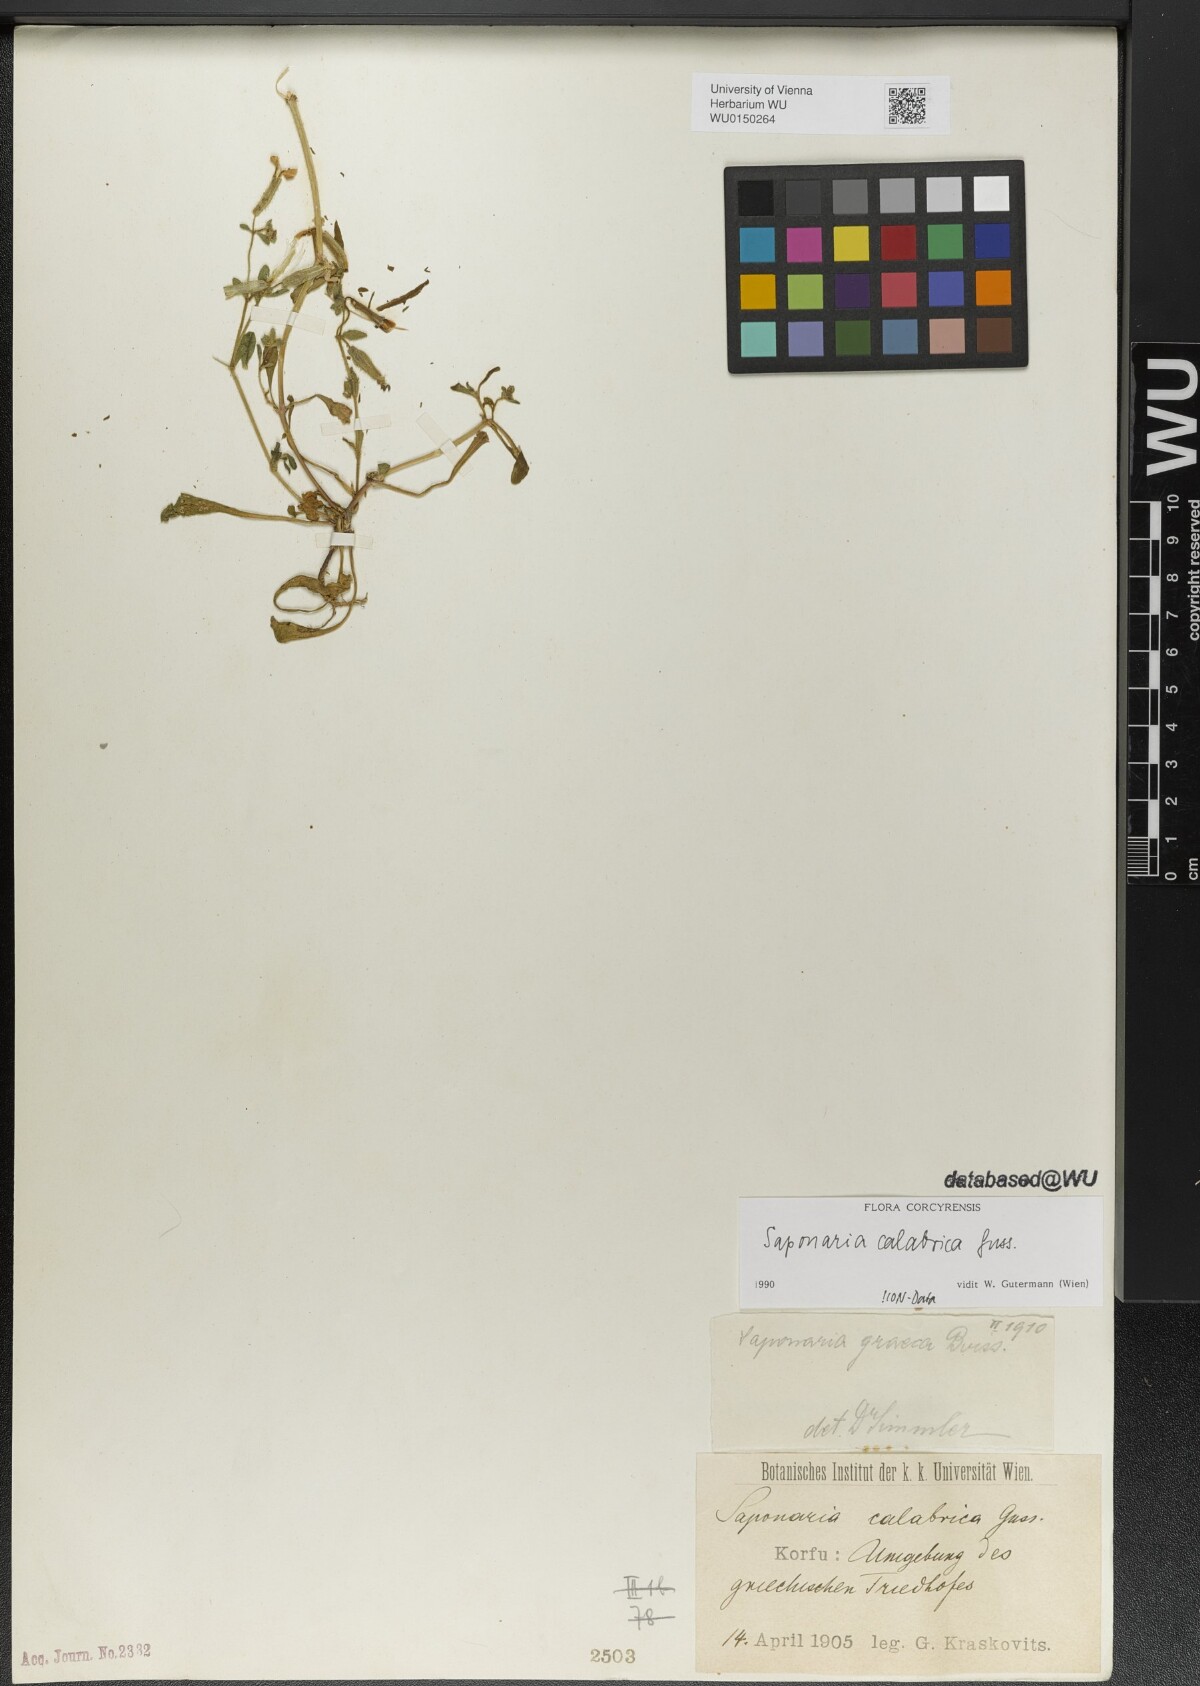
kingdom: Plantae
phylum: Tracheophyta
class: Magnoliopsida
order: Caryophyllales
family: Caryophyllaceae
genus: Saponaria
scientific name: Saponaria calabrica
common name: Adriatic soapwort
